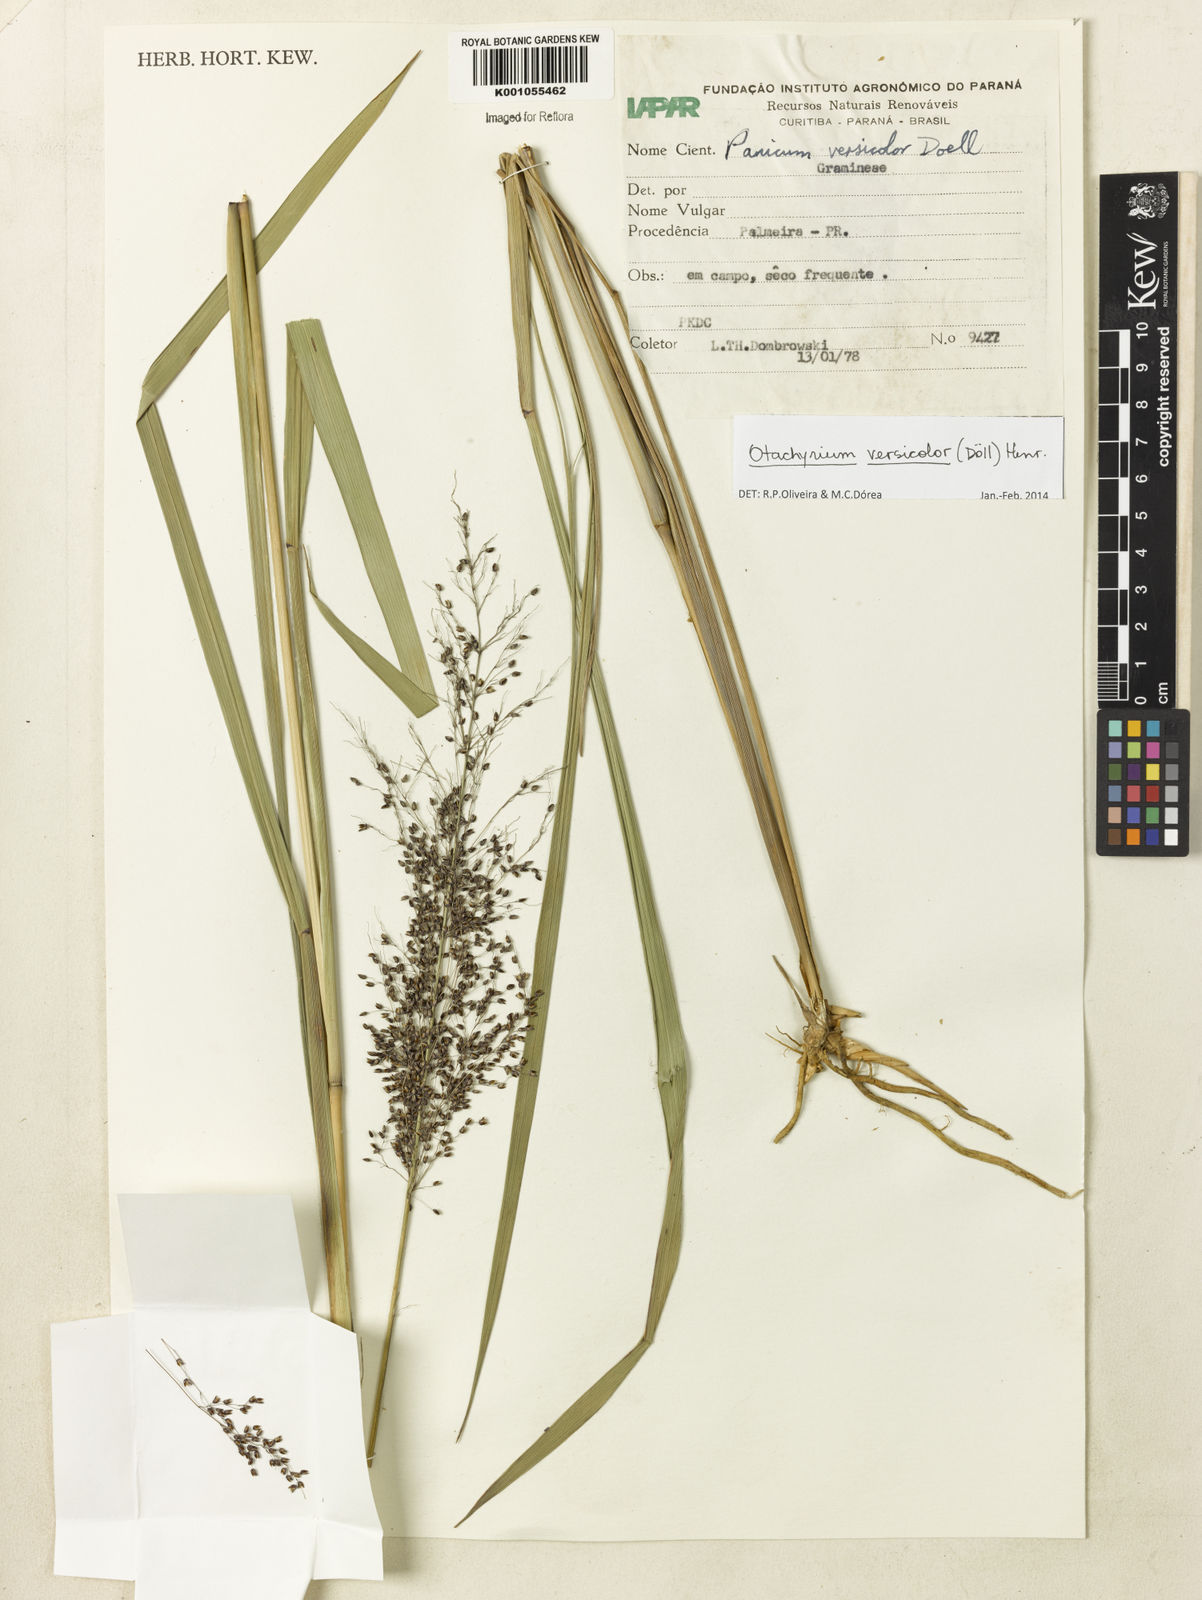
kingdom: Plantae
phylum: Tracheophyta
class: Liliopsida
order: Poales
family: Poaceae
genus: Otachyrium
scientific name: Otachyrium
